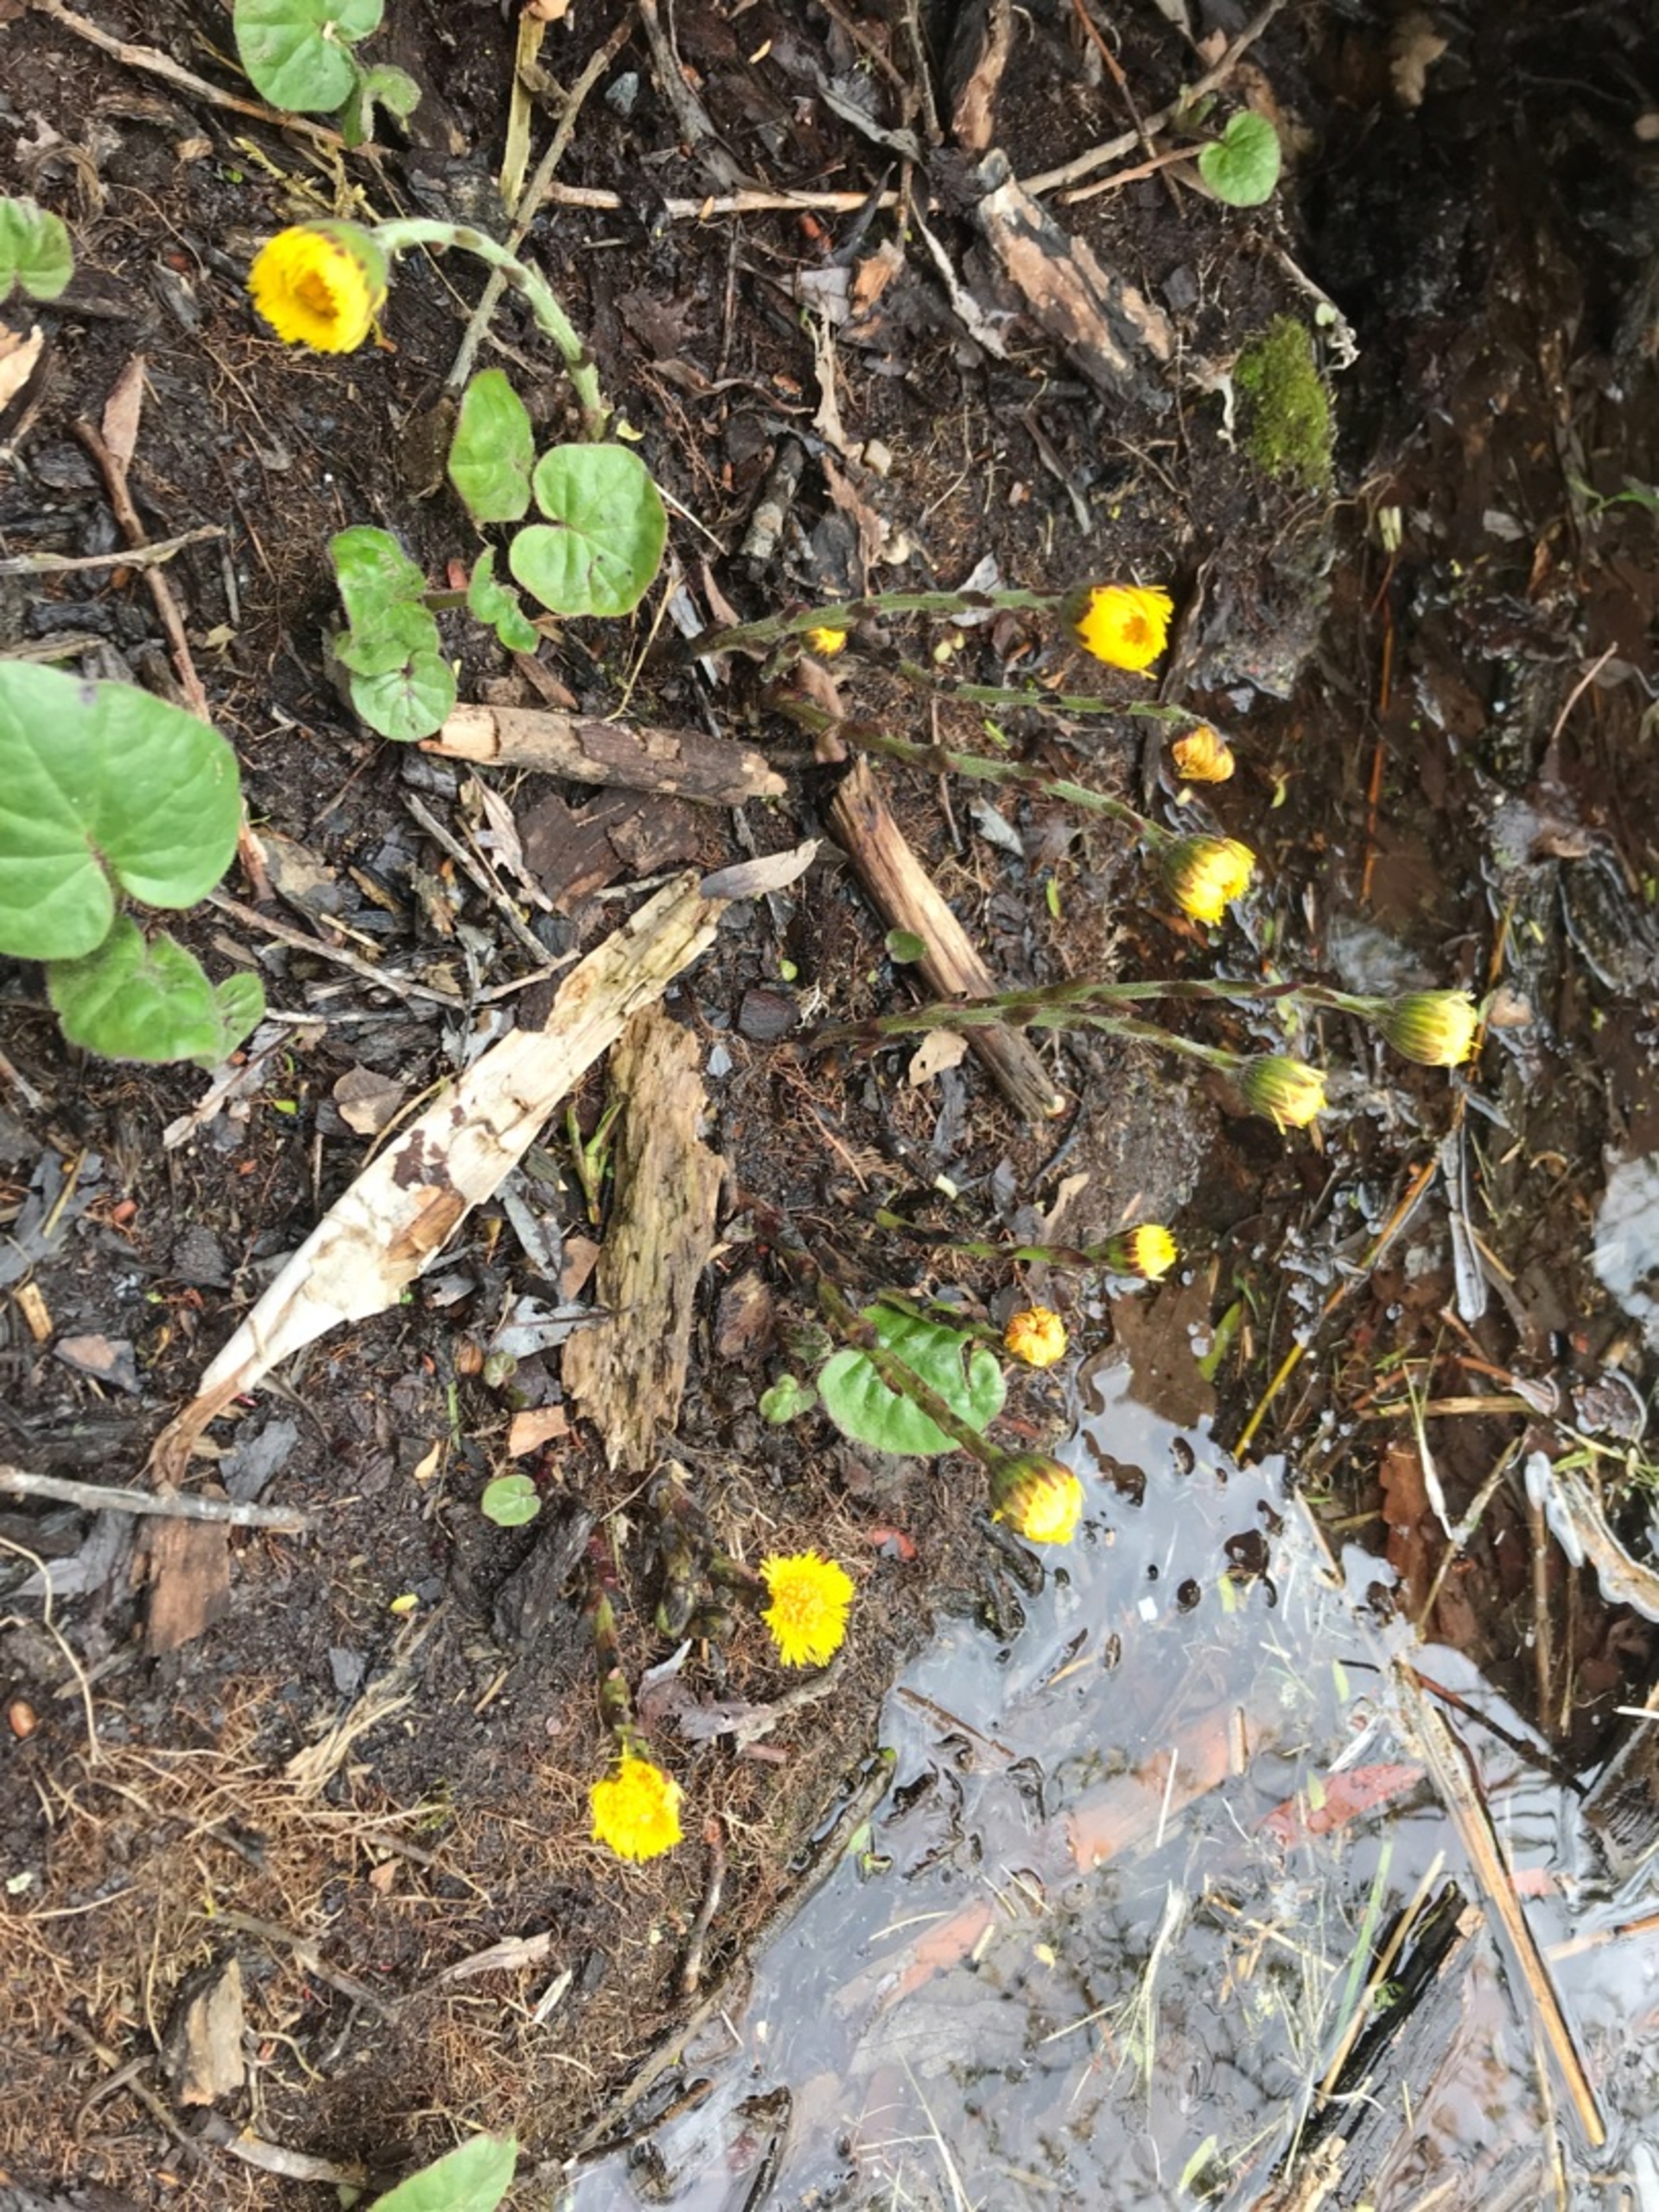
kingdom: Plantae
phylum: Tracheophyta
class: Magnoliopsida
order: Asterales
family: Asteraceae
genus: Tussilago
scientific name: Tussilago farfara
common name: Følfod
